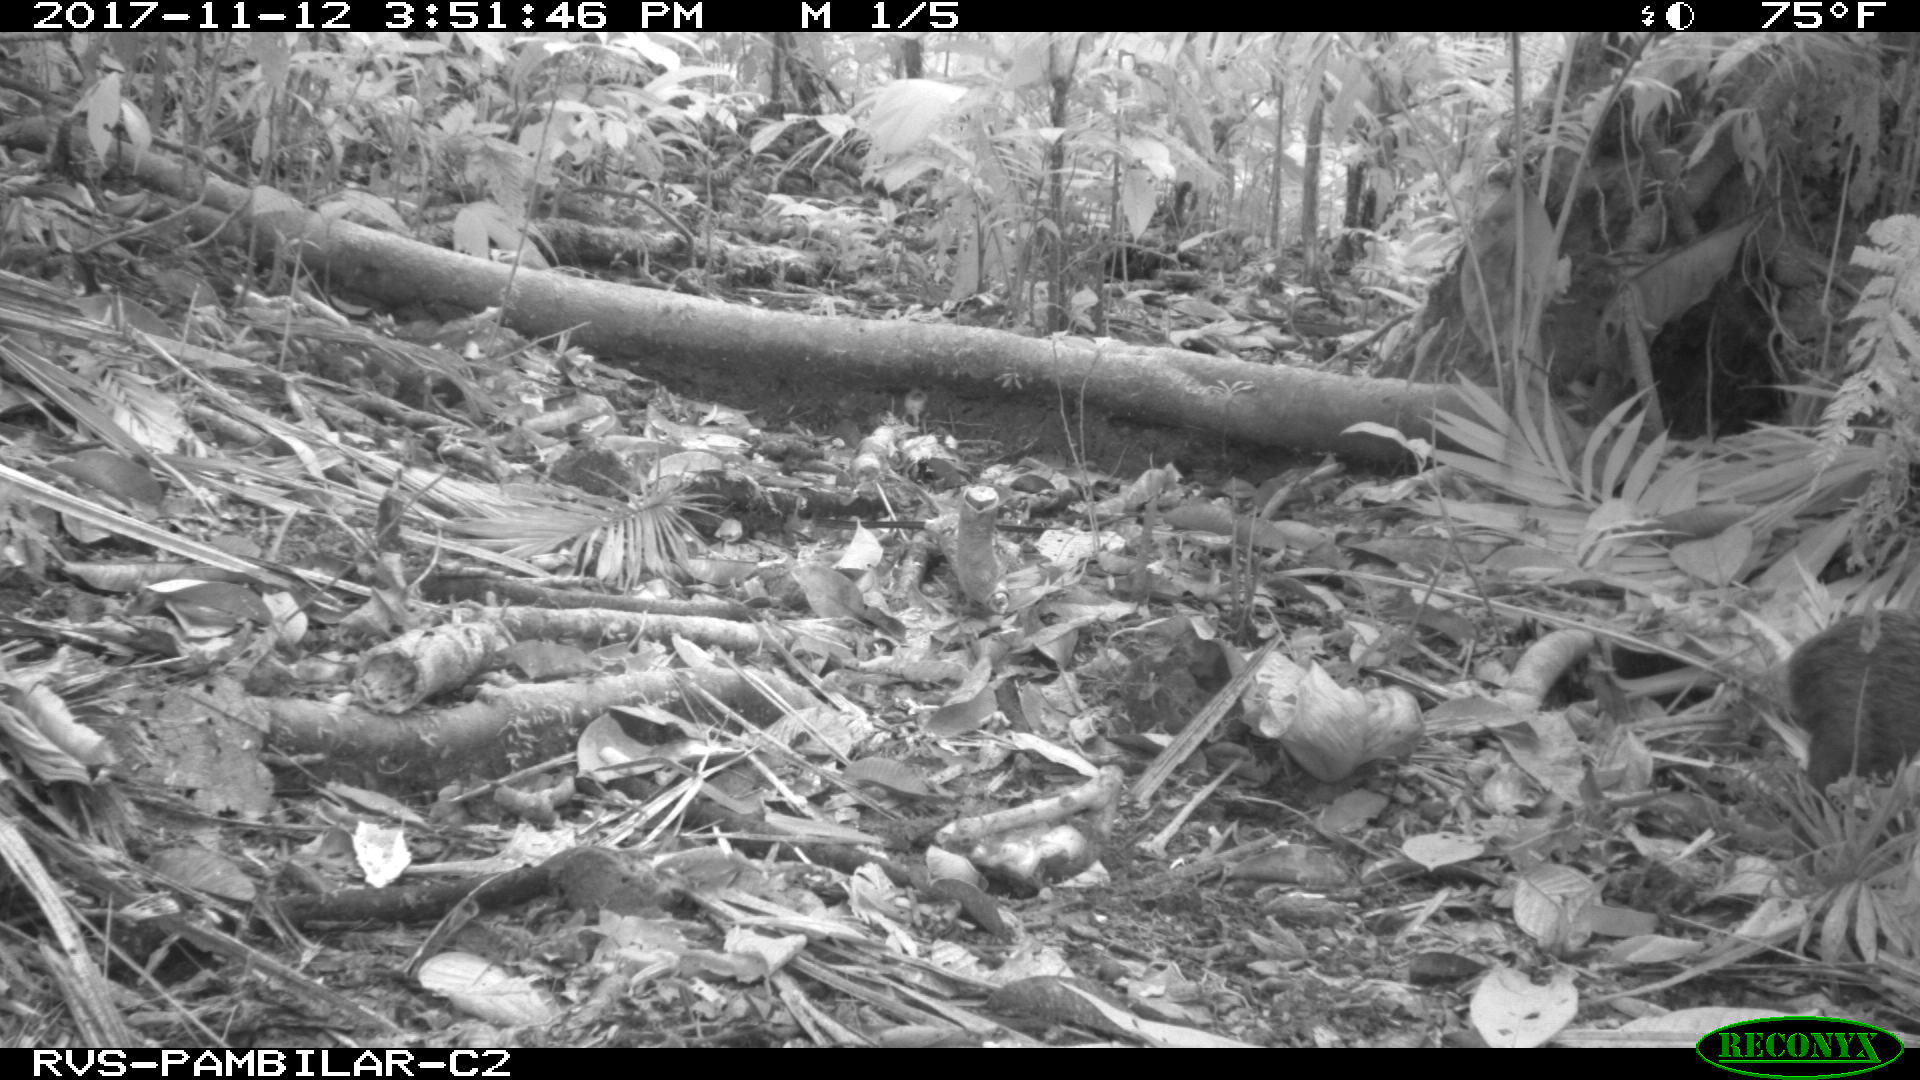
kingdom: Animalia
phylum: Chordata
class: Mammalia
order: Rodentia
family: Dasyproctidae
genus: Dasyprocta
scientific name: Dasyprocta punctata
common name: Central american agouti
